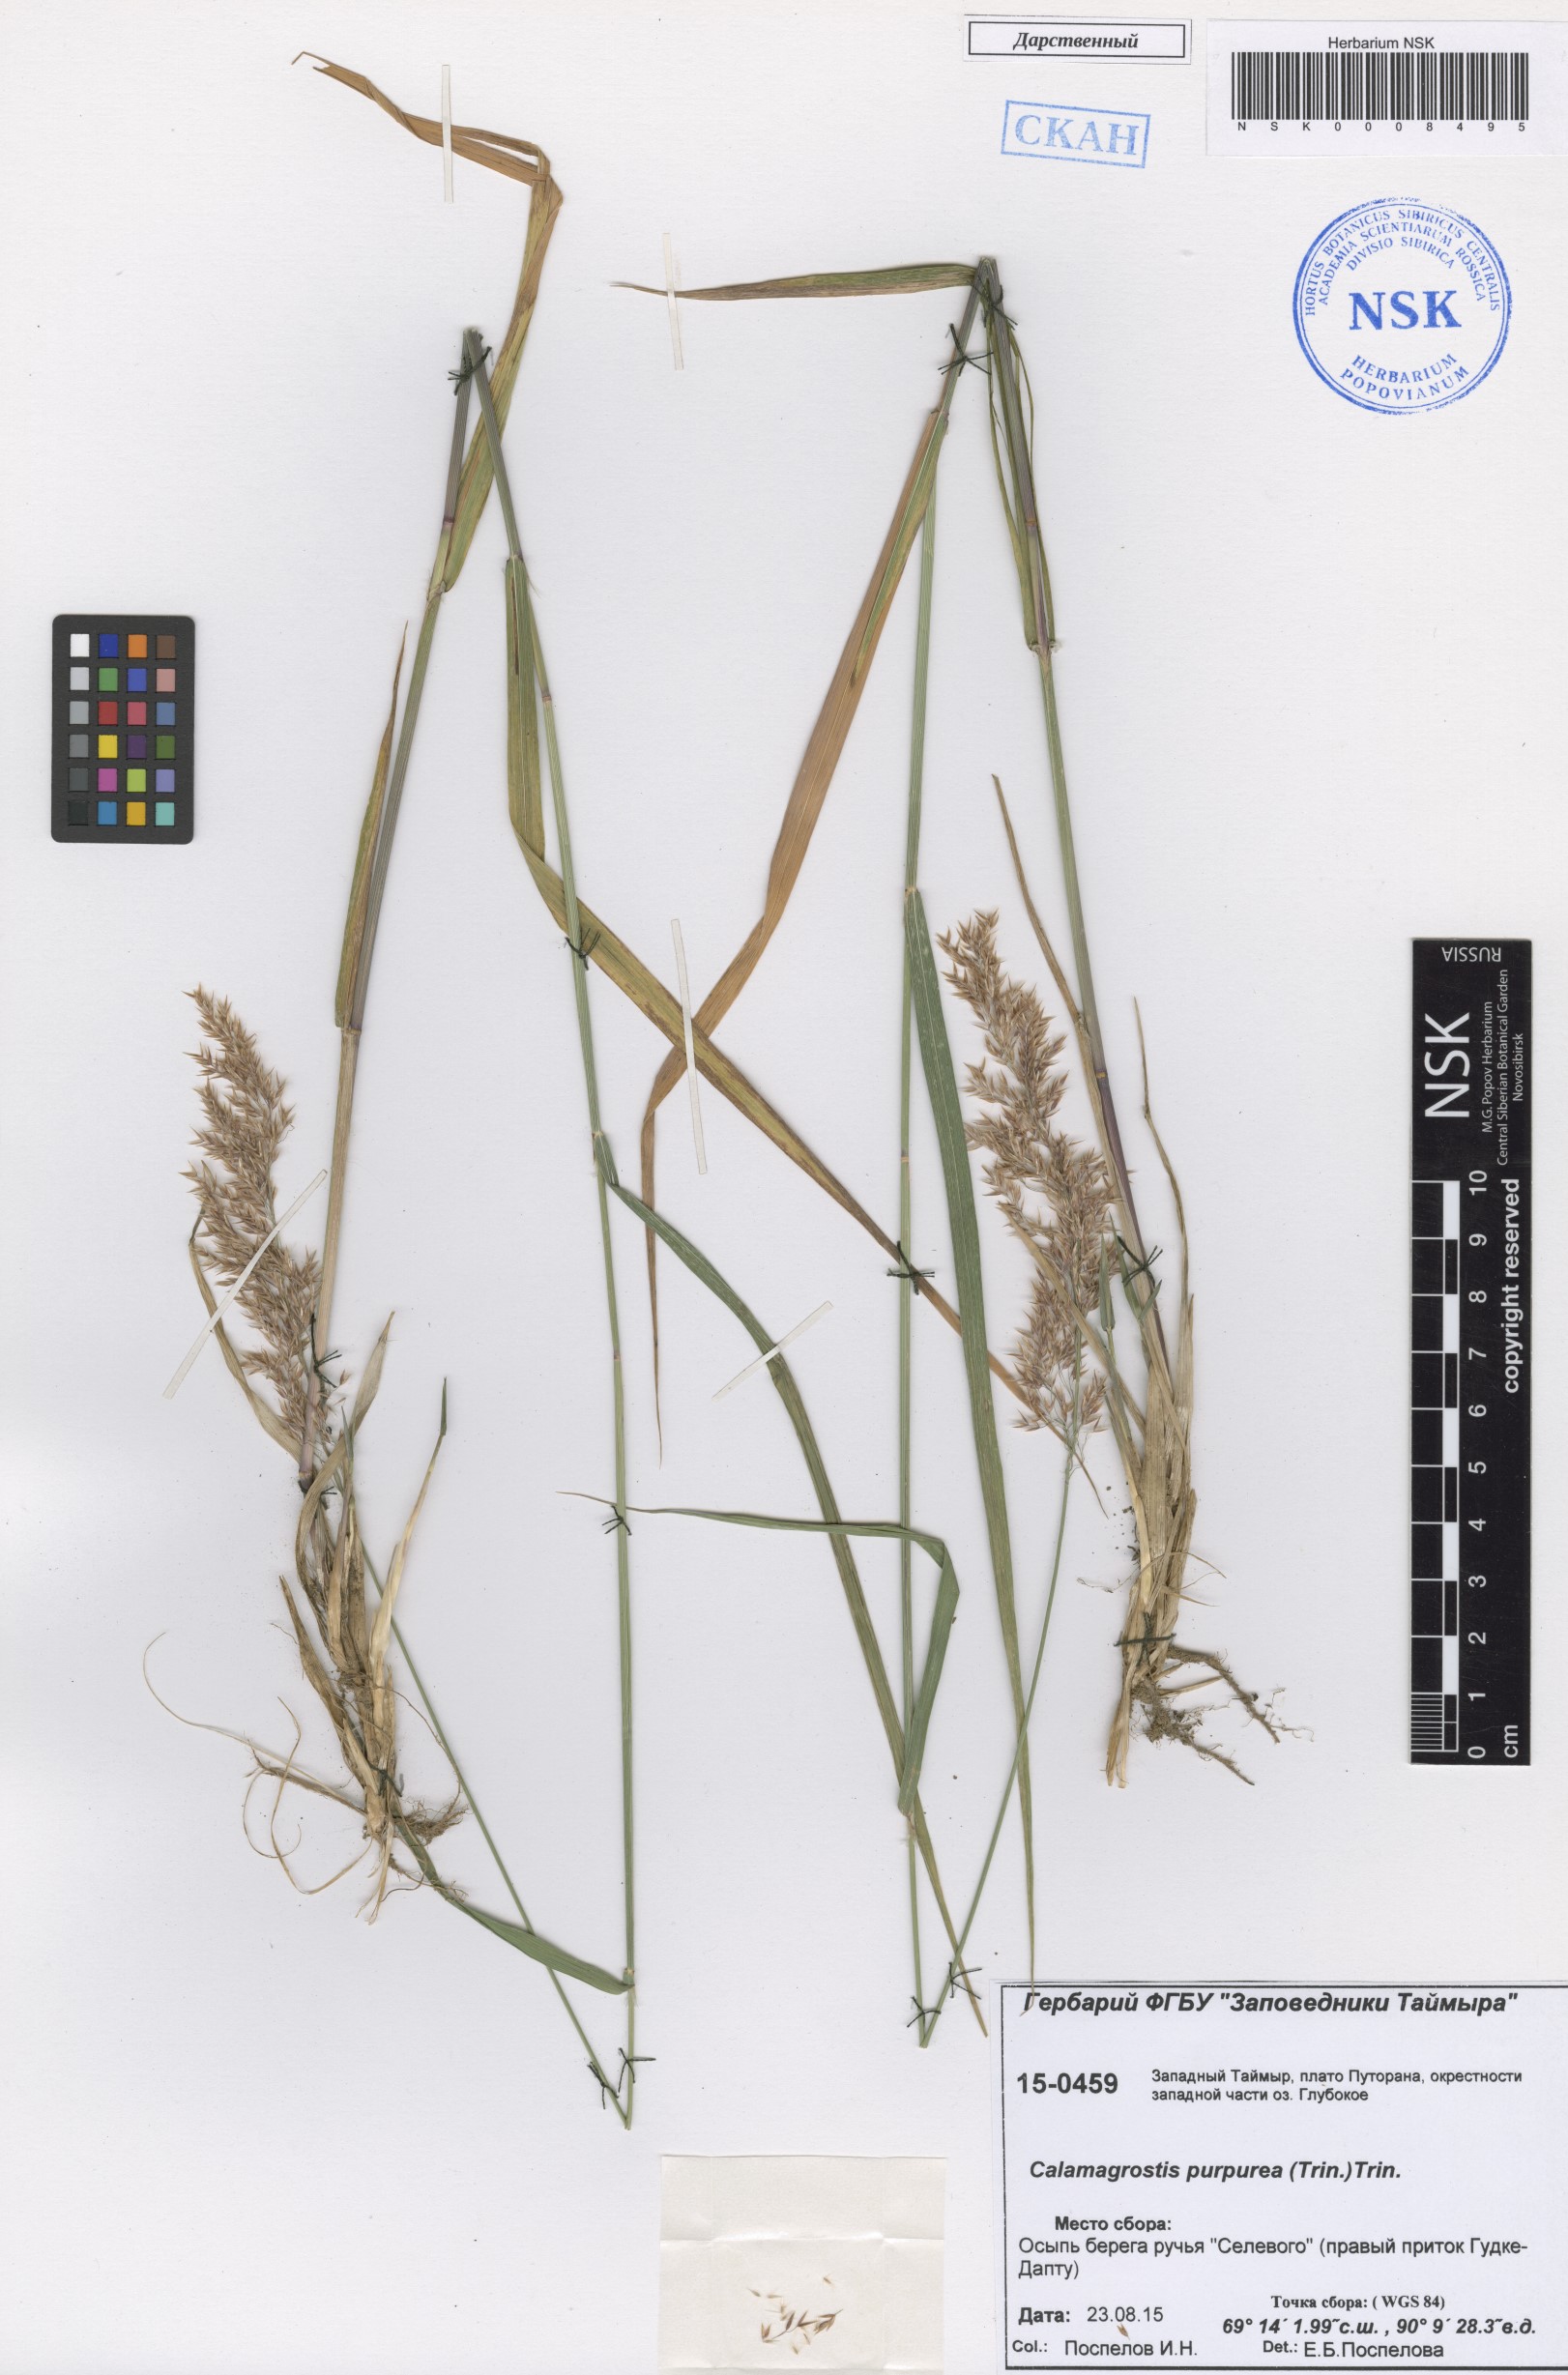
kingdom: Plantae
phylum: Tracheophyta
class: Liliopsida
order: Poales
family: Poaceae
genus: Calamagrostis
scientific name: Calamagrostis purpurea
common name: Scandinavian small-reed
